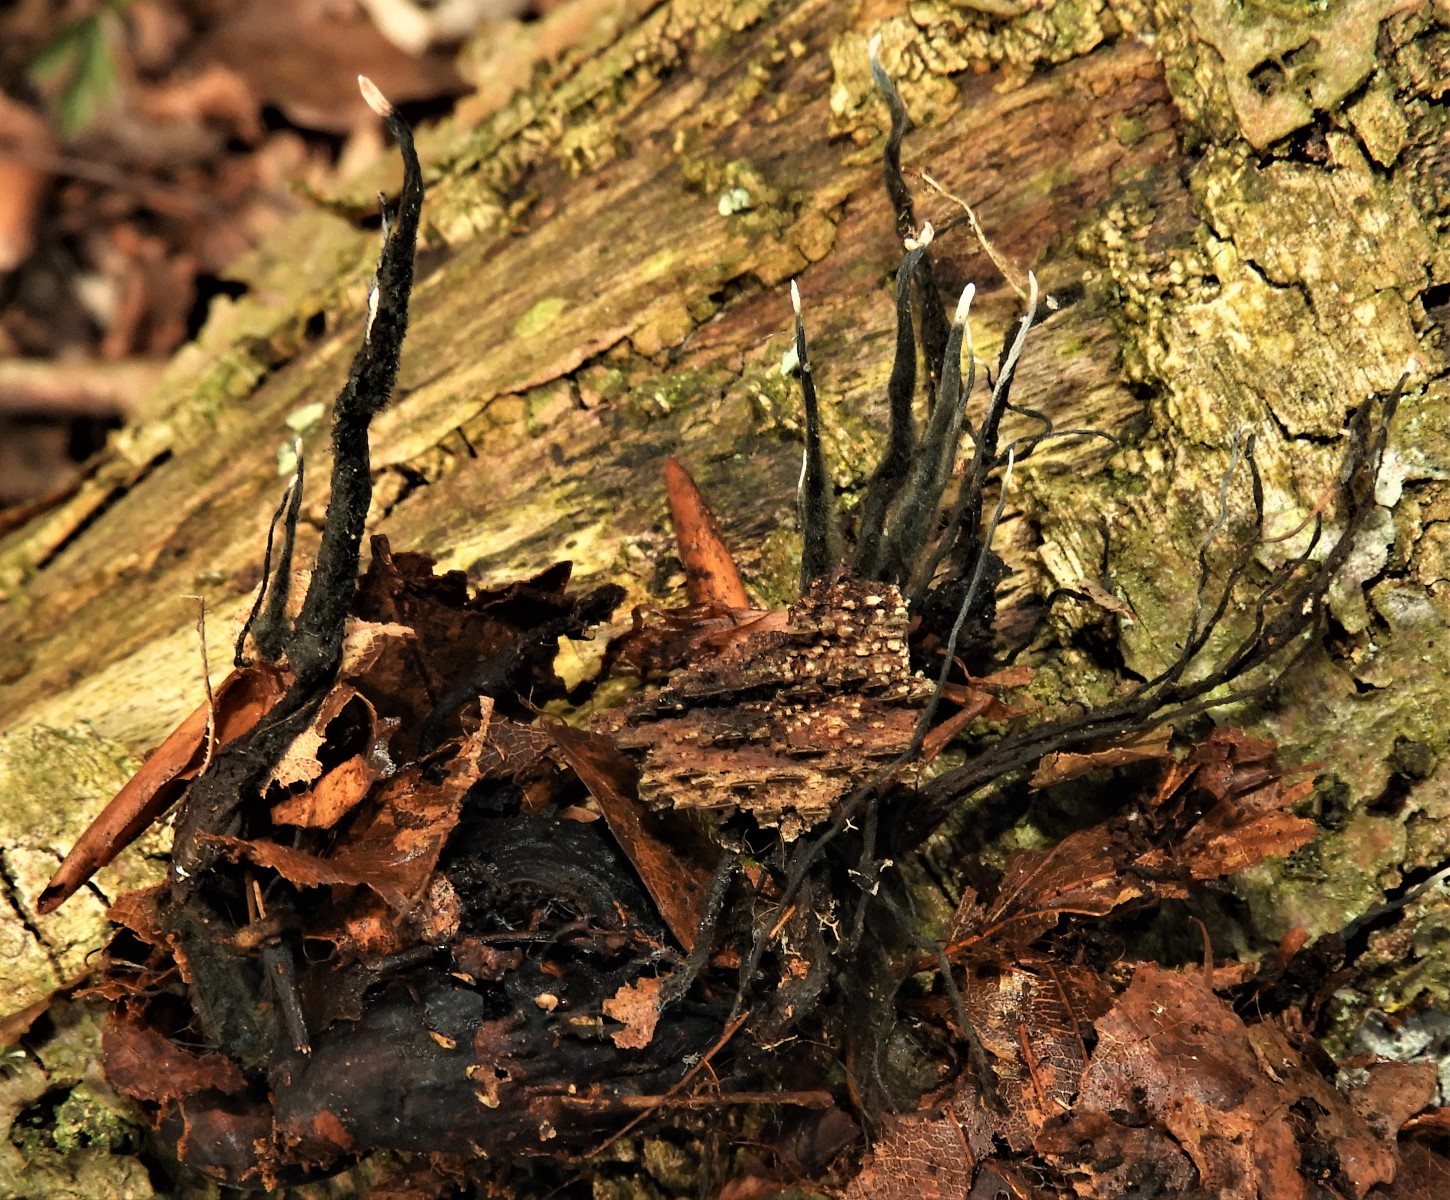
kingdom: Fungi
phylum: Ascomycota
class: Sordariomycetes
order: Xylariales
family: Xylariaceae
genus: Xylaria
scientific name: Xylaria carpophila
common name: bogskål-stødsvamp
